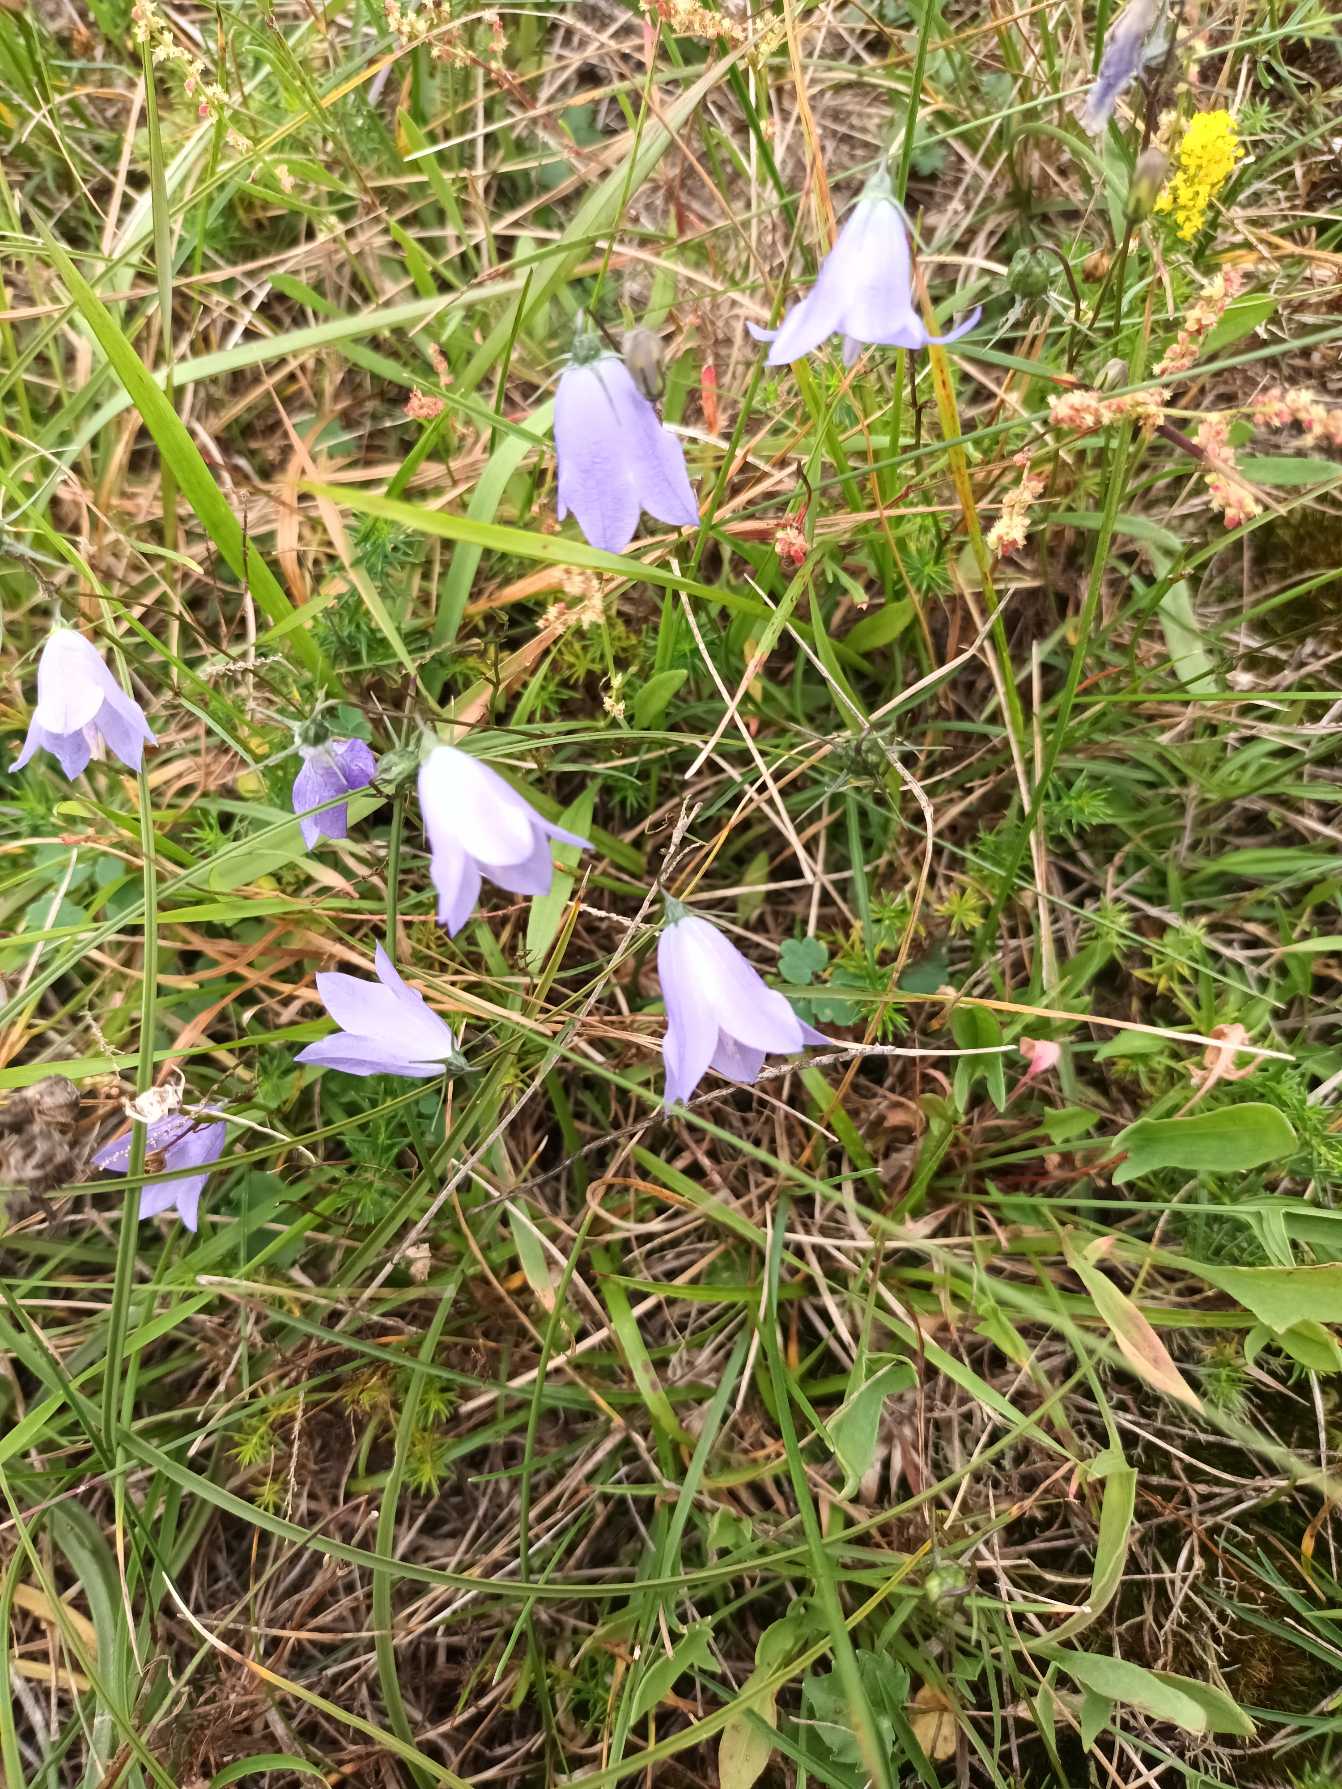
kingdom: Plantae
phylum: Tracheophyta
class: Magnoliopsida
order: Asterales
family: Campanulaceae
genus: Campanula
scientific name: Campanula rotundifolia
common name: Liden klokke
